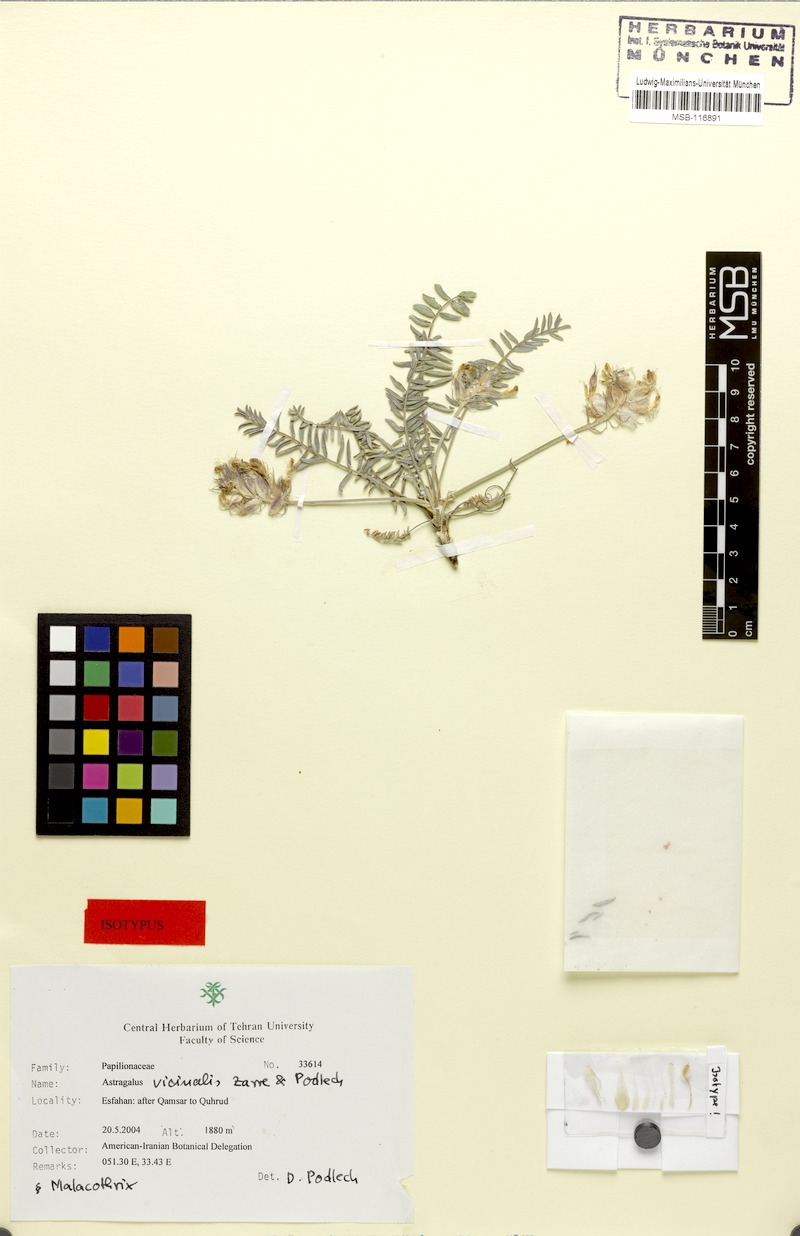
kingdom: Plantae
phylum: Tracheophyta
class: Magnoliopsida
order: Fabales
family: Fabaceae
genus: Astragalus
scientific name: Astragalus vicinalis
